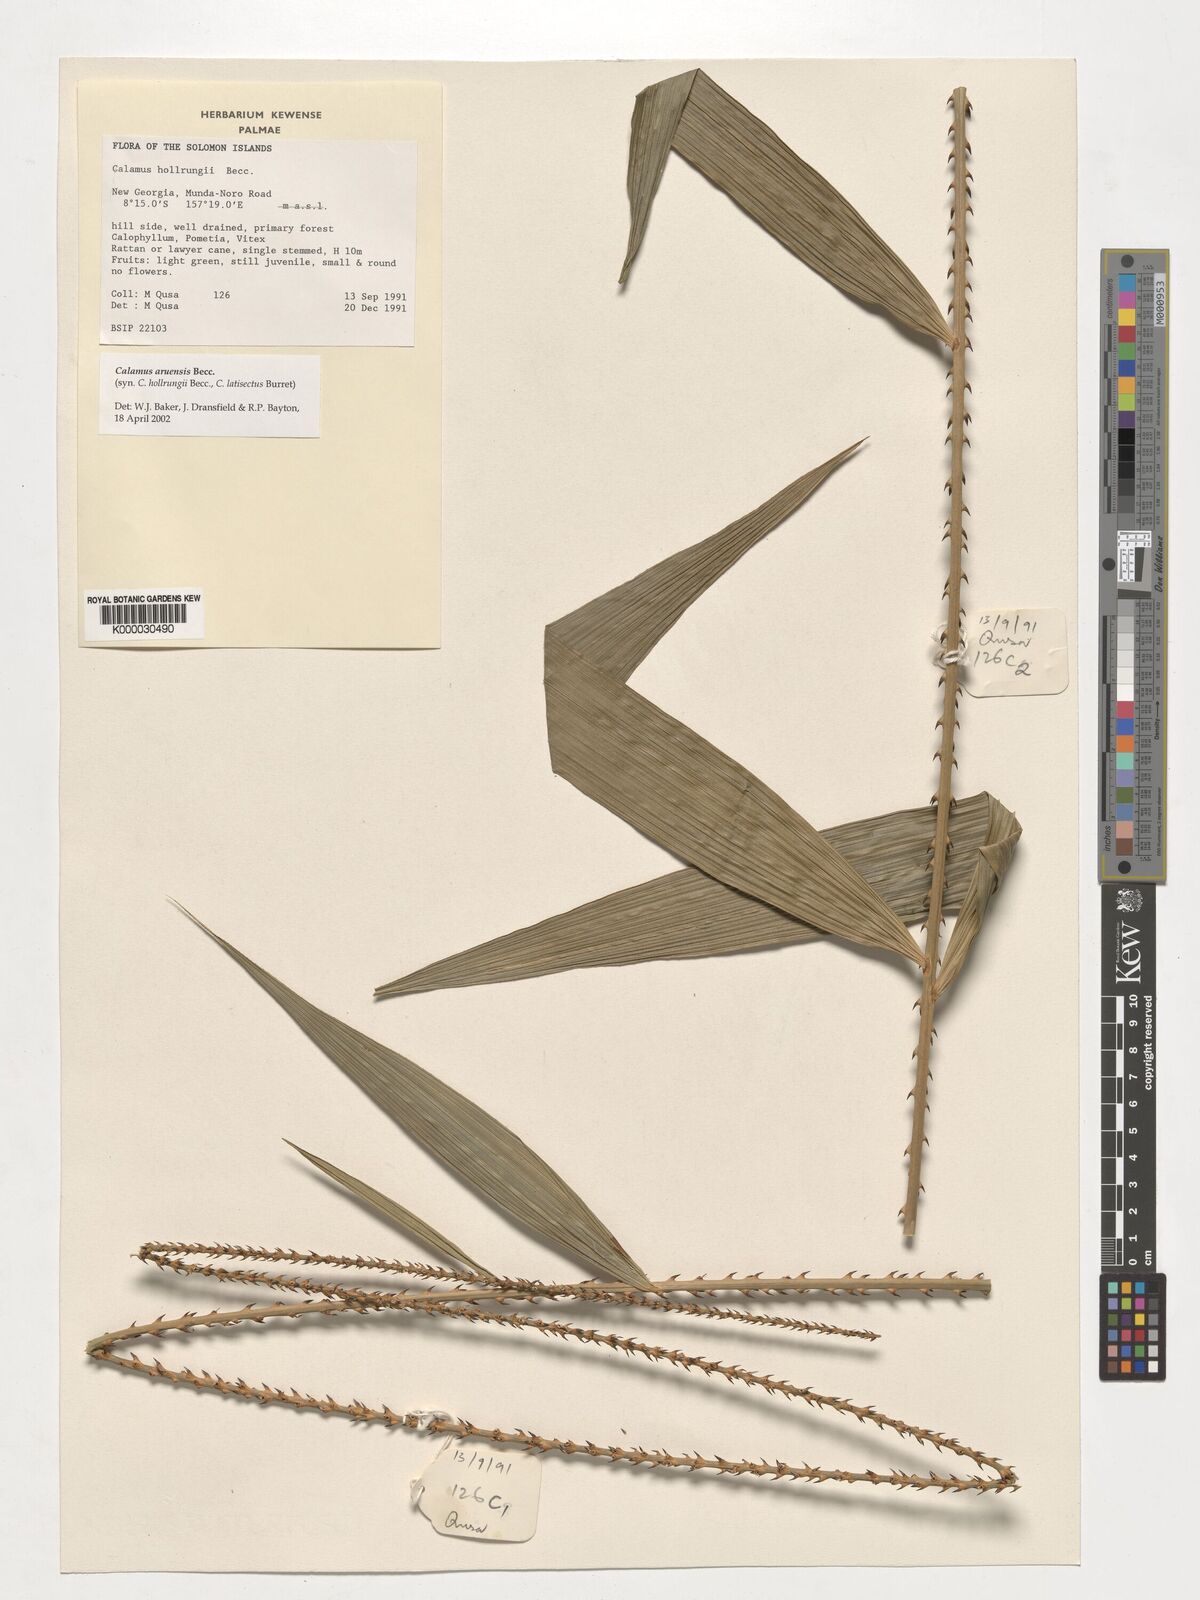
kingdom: Plantae
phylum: Tracheophyta
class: Liliopsida
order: Arecales
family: Arecaceae
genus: Calamus
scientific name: Calamus aruensis
